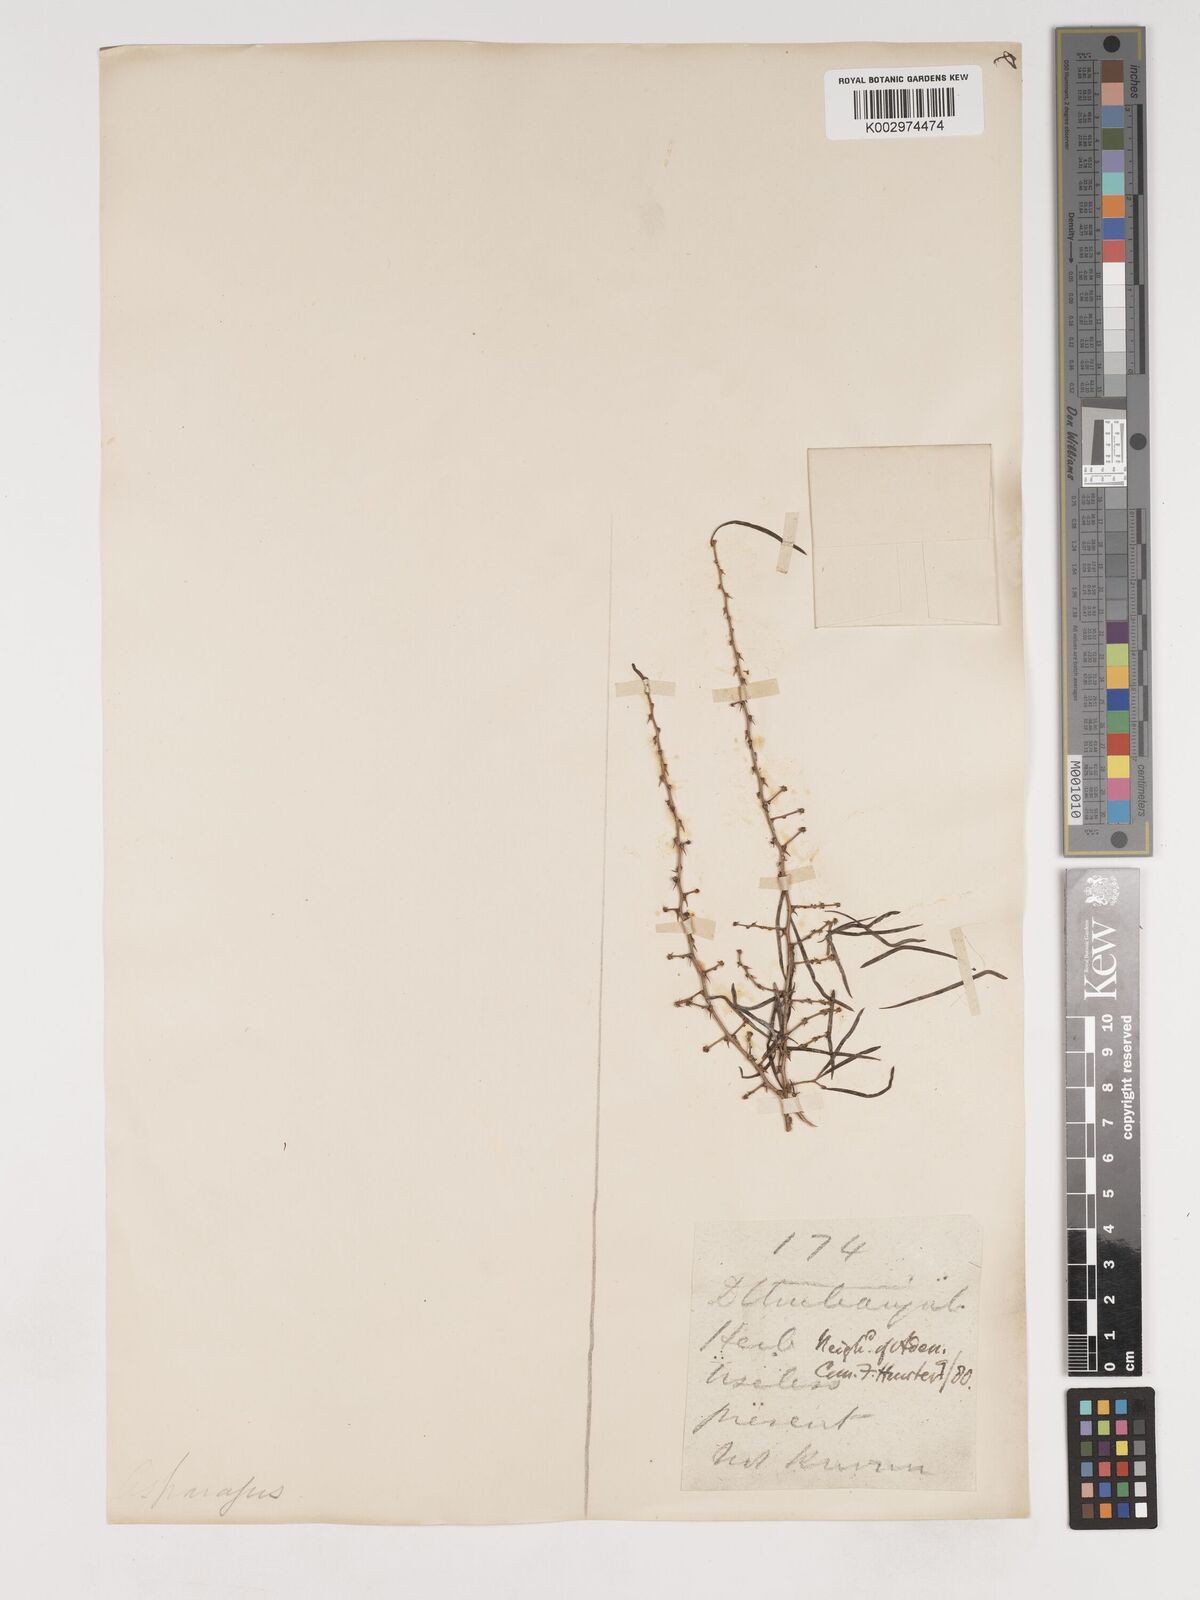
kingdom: Plantae
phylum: Tracheophyta
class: Liliopsida
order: Asparagales
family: Asparagaceae
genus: Asparagus
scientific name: Asparagus
